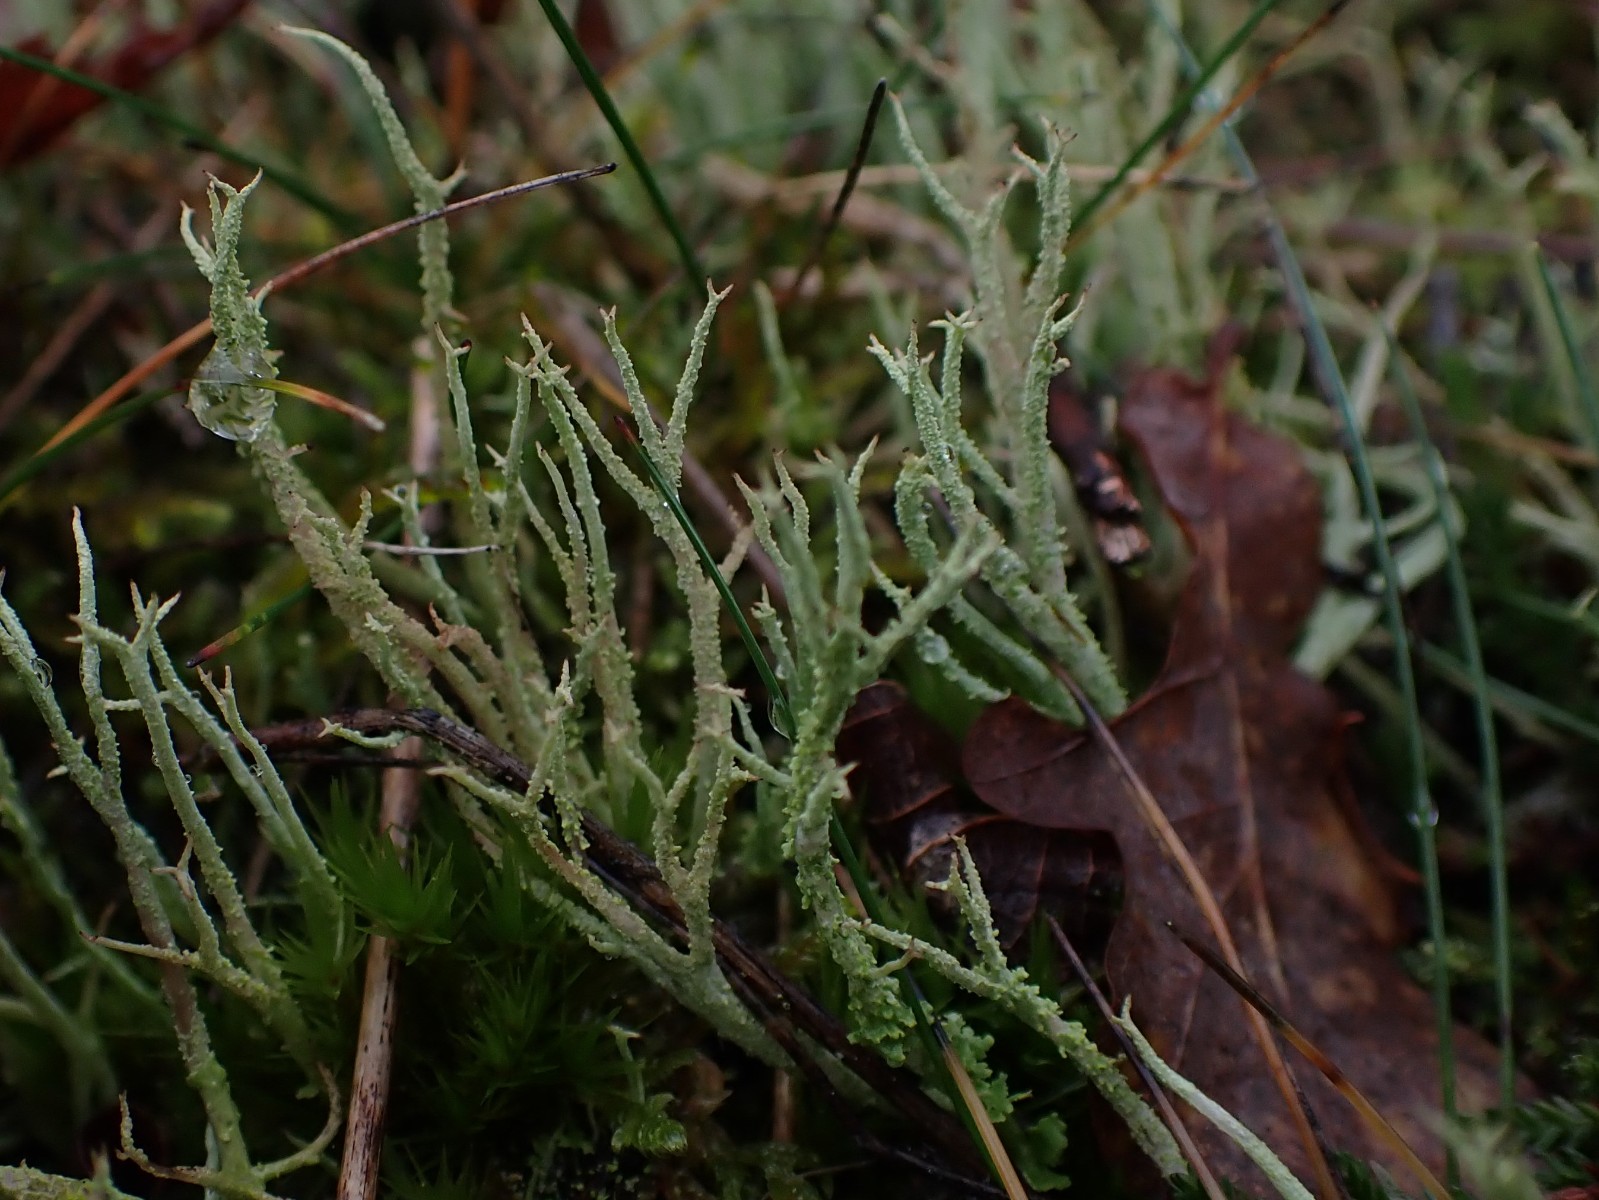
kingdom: Fungi
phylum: Ascomycota
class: Lecanoromycetes
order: Lecanorales
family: Cladoniaceae
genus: Cladonia
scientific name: Cladonia scabriuscula
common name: ru bægerlav
